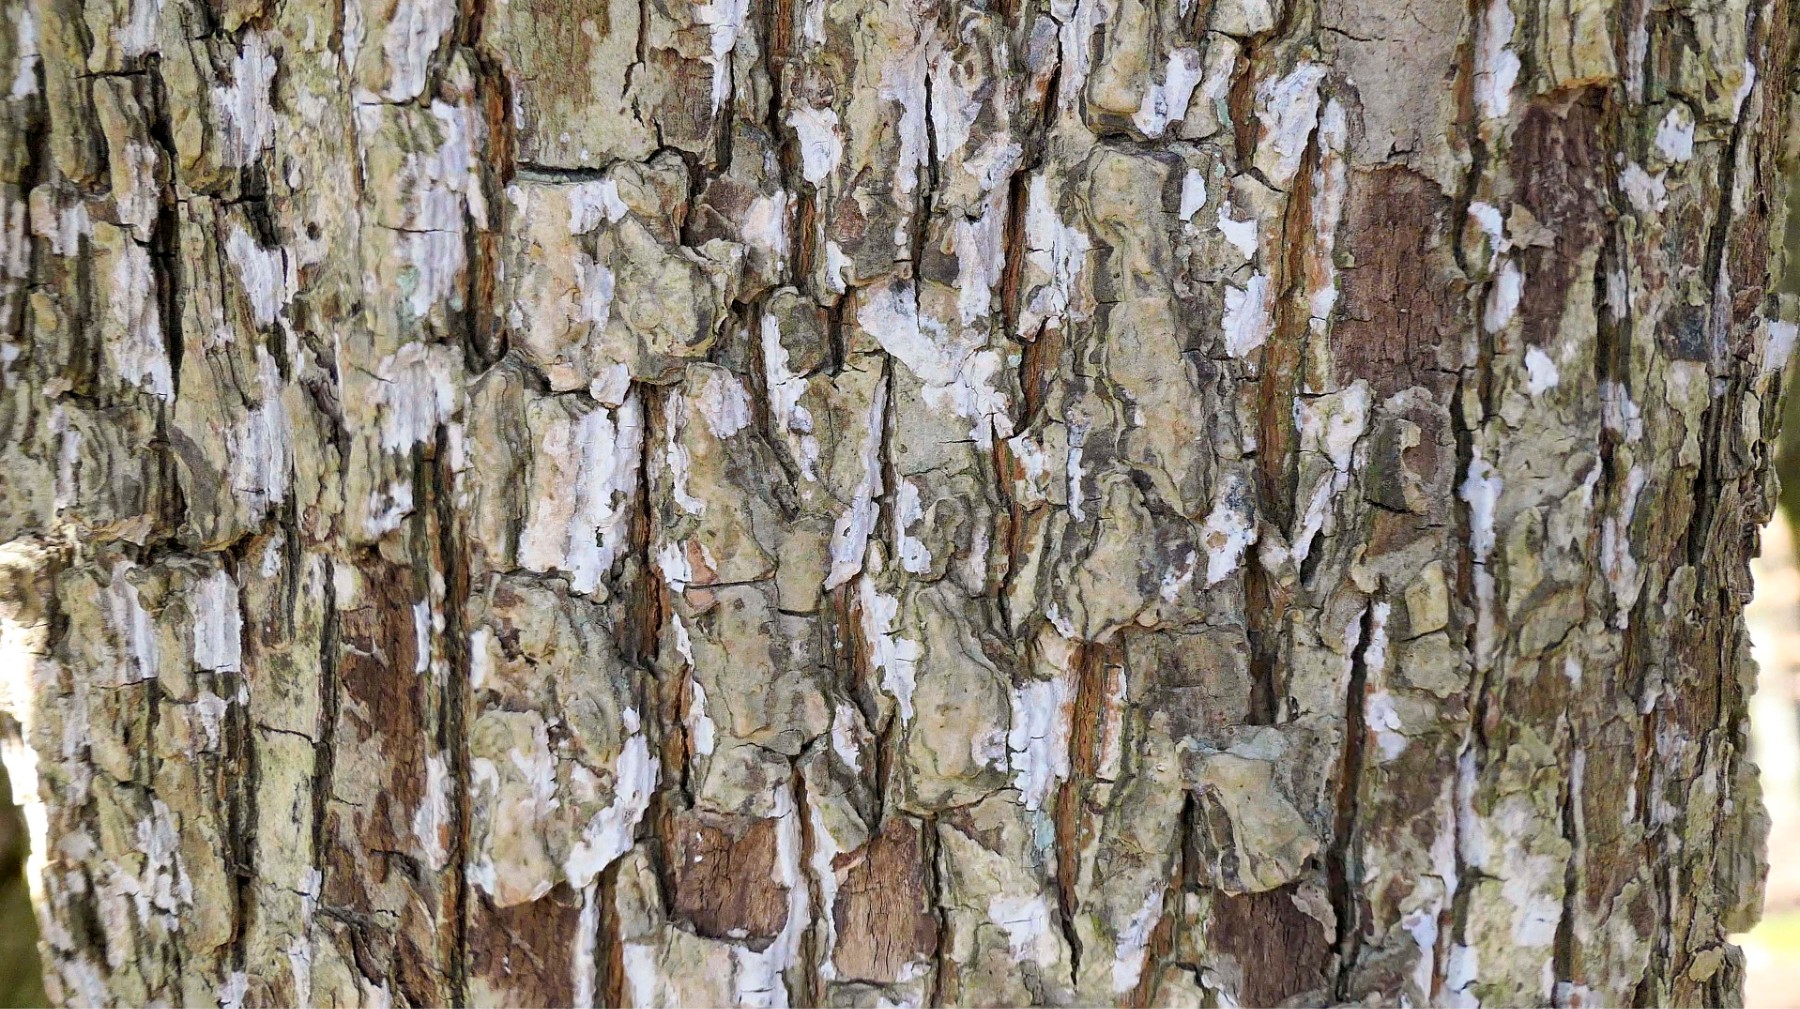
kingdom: Fungi
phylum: Basidiomycota
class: Agaricomycetes
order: Agaricales
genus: Dendrothele
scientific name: Dendrothele acerina
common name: navr-kalkplet
